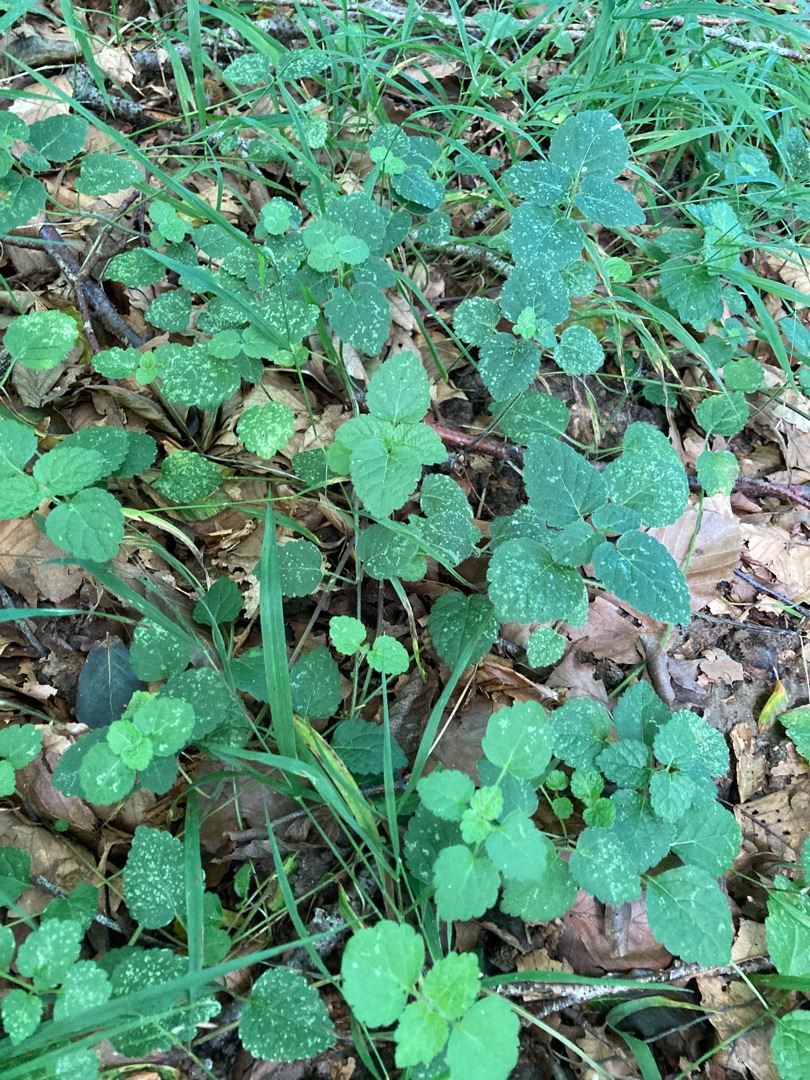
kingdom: Plantae
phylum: Tracheophyta
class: Magnoliopsida
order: Lamiales
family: Lamiaceae
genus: Lamium
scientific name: Lamium galeobdolon
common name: Guldnælde
